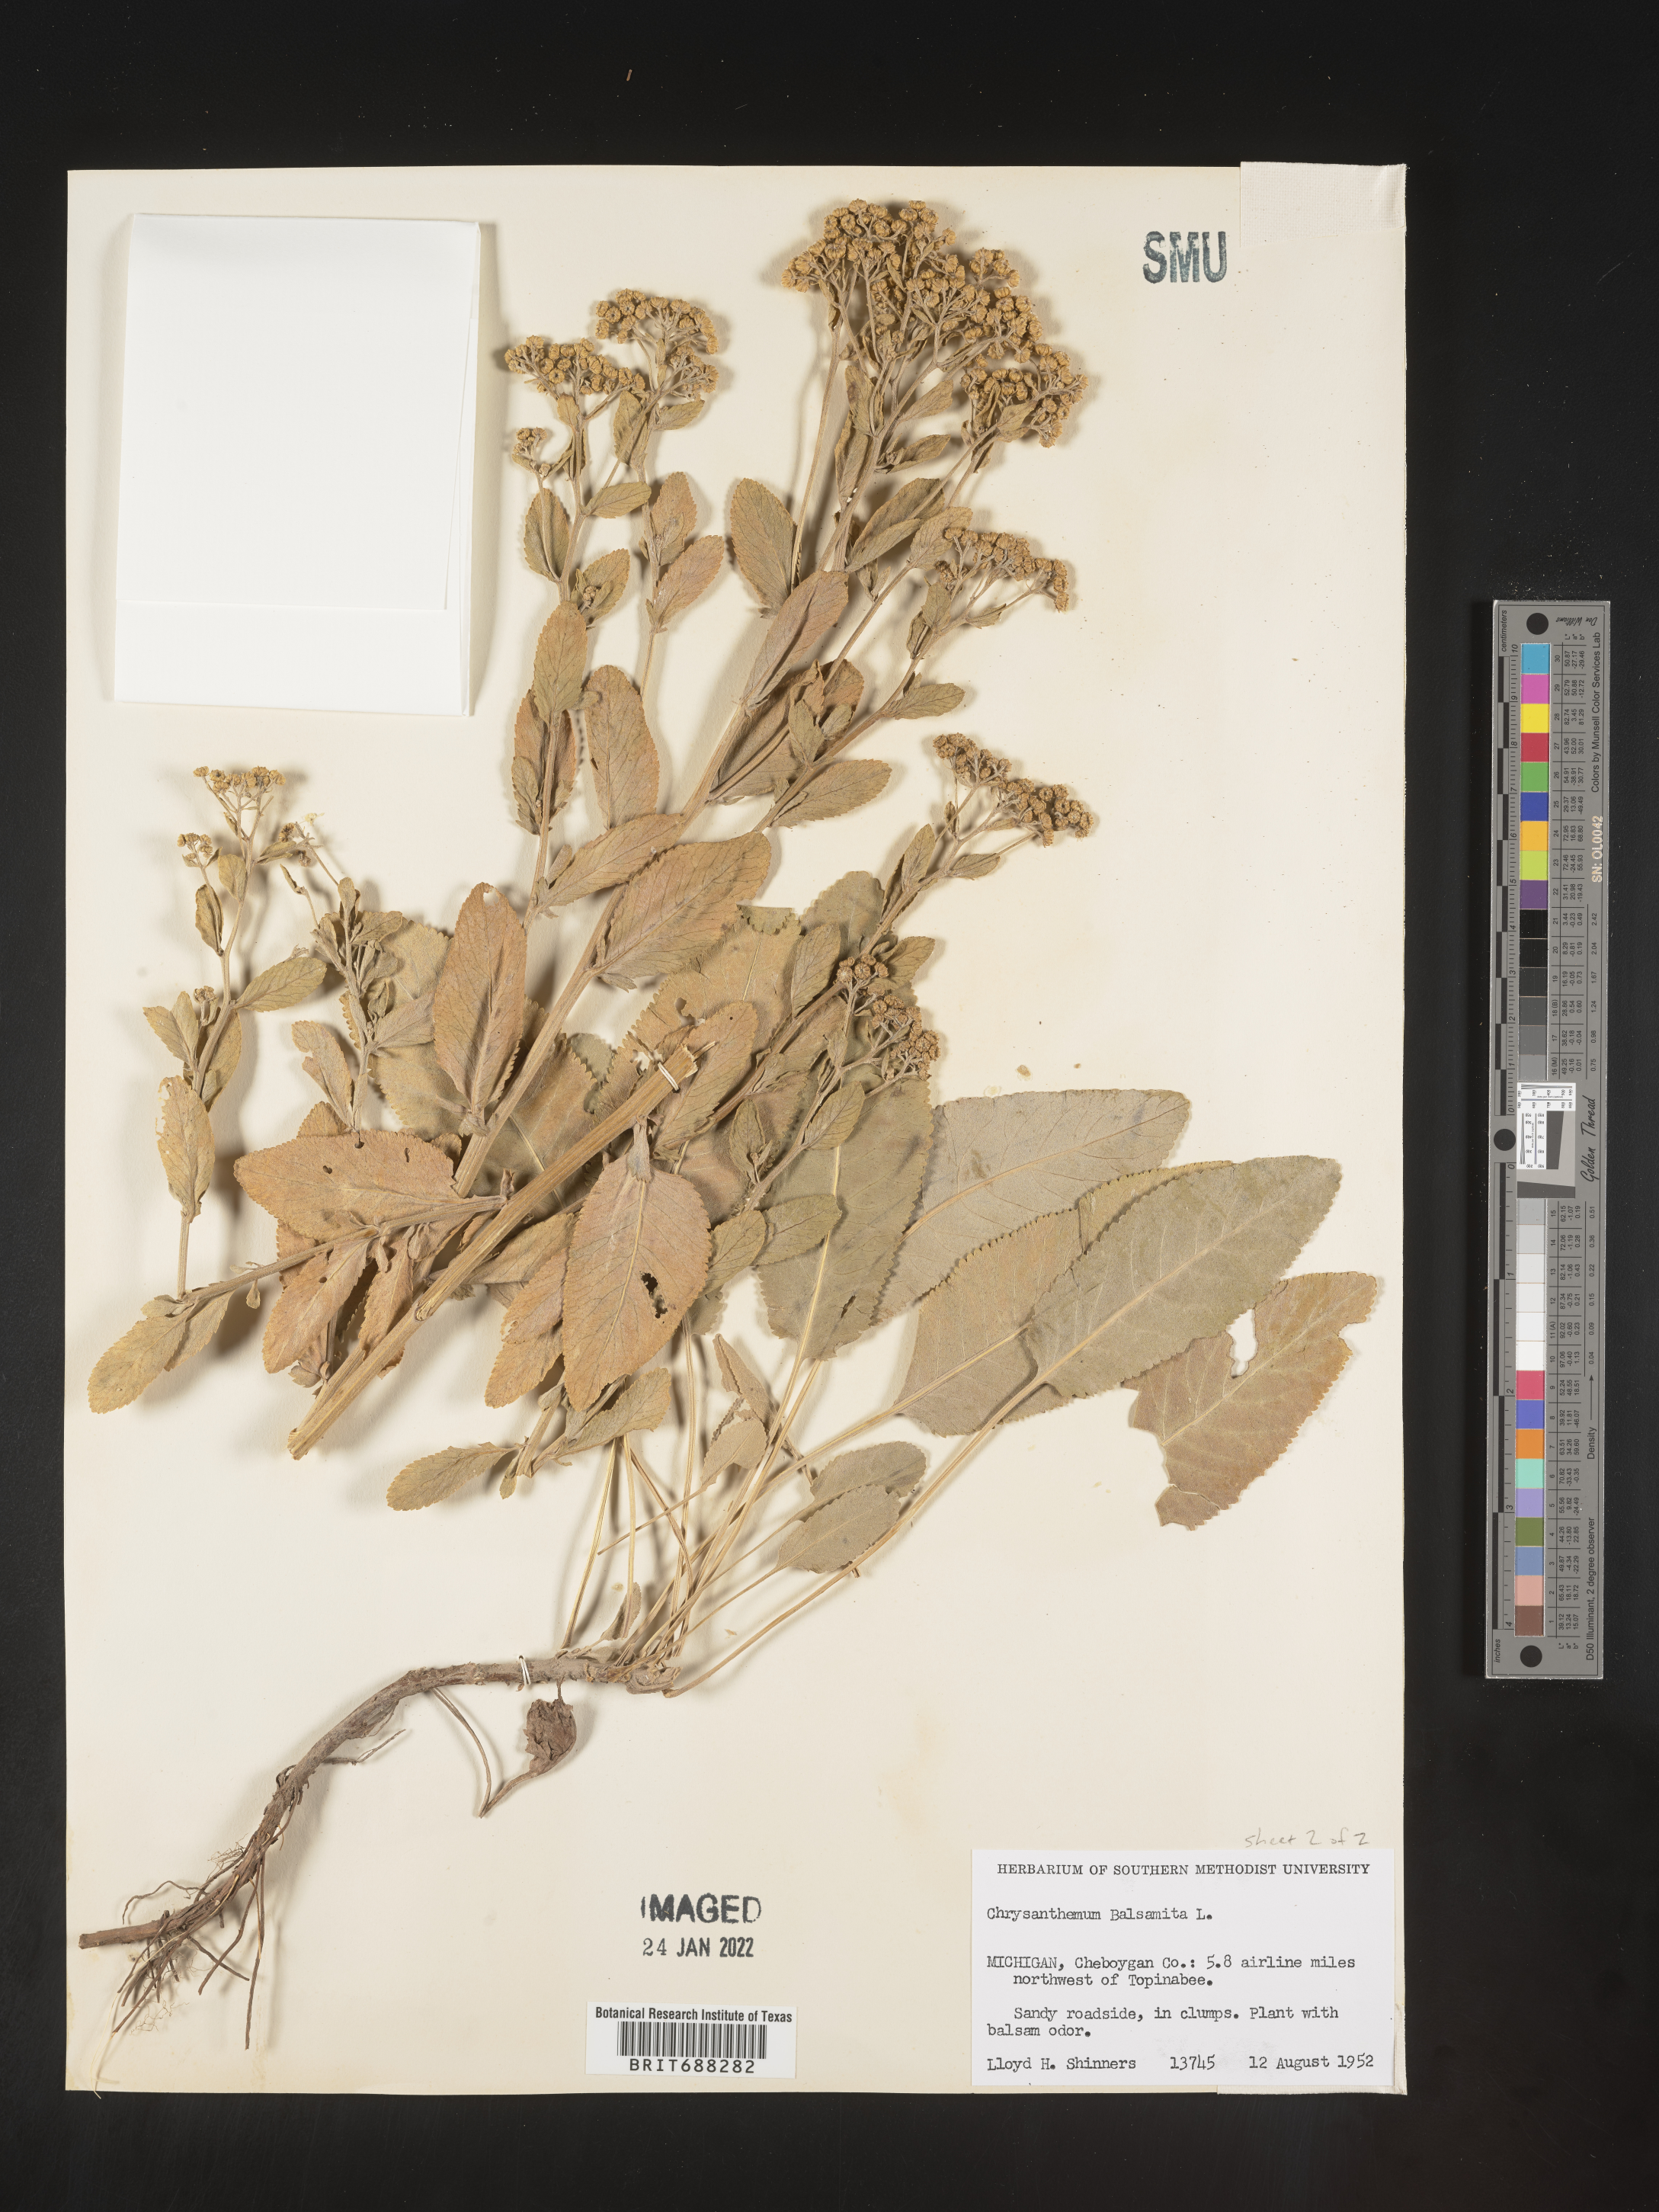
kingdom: Plantae
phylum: Tracheophyta
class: Magnoliopsida
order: Asterales
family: Asteraceae
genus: Chrysanthemum
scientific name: Chrysanthemum
